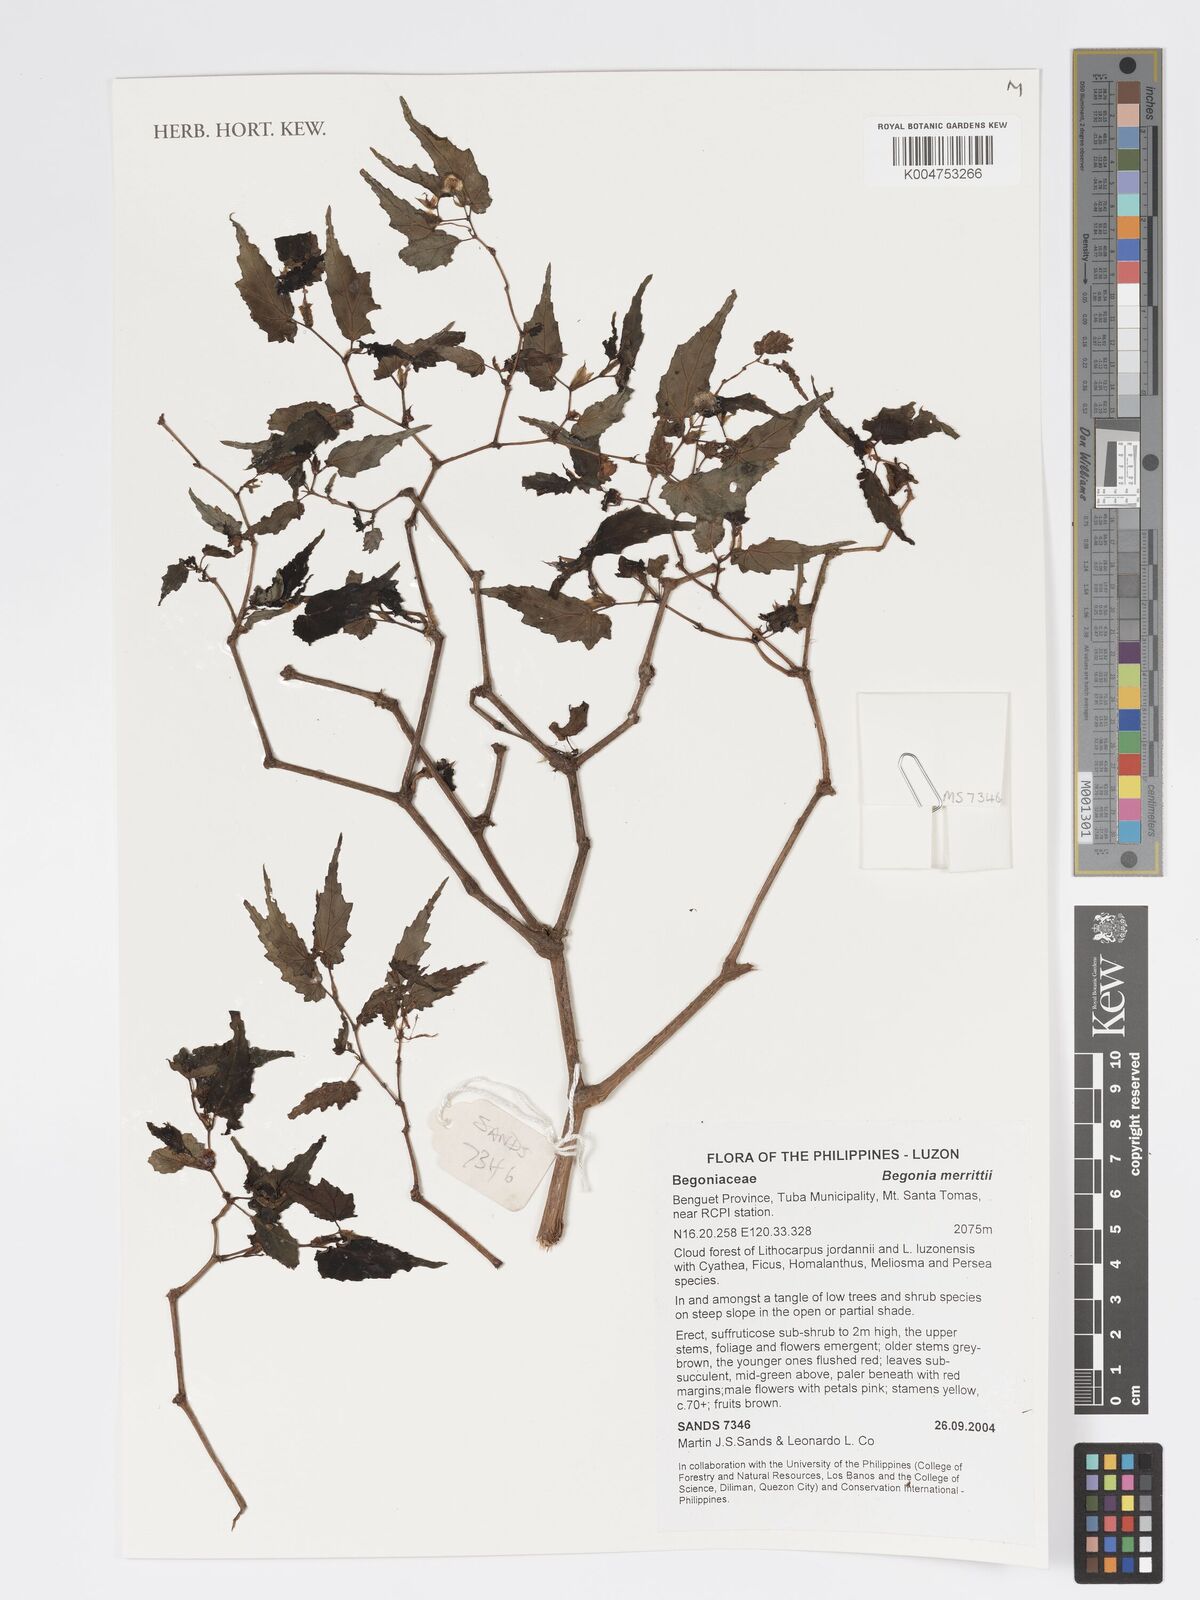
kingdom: Plantae
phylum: Tracheophyta
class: Magnoliopsida
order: Cucurbitales
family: Begoniaceae
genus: Begonia
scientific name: Begonia merrittii
